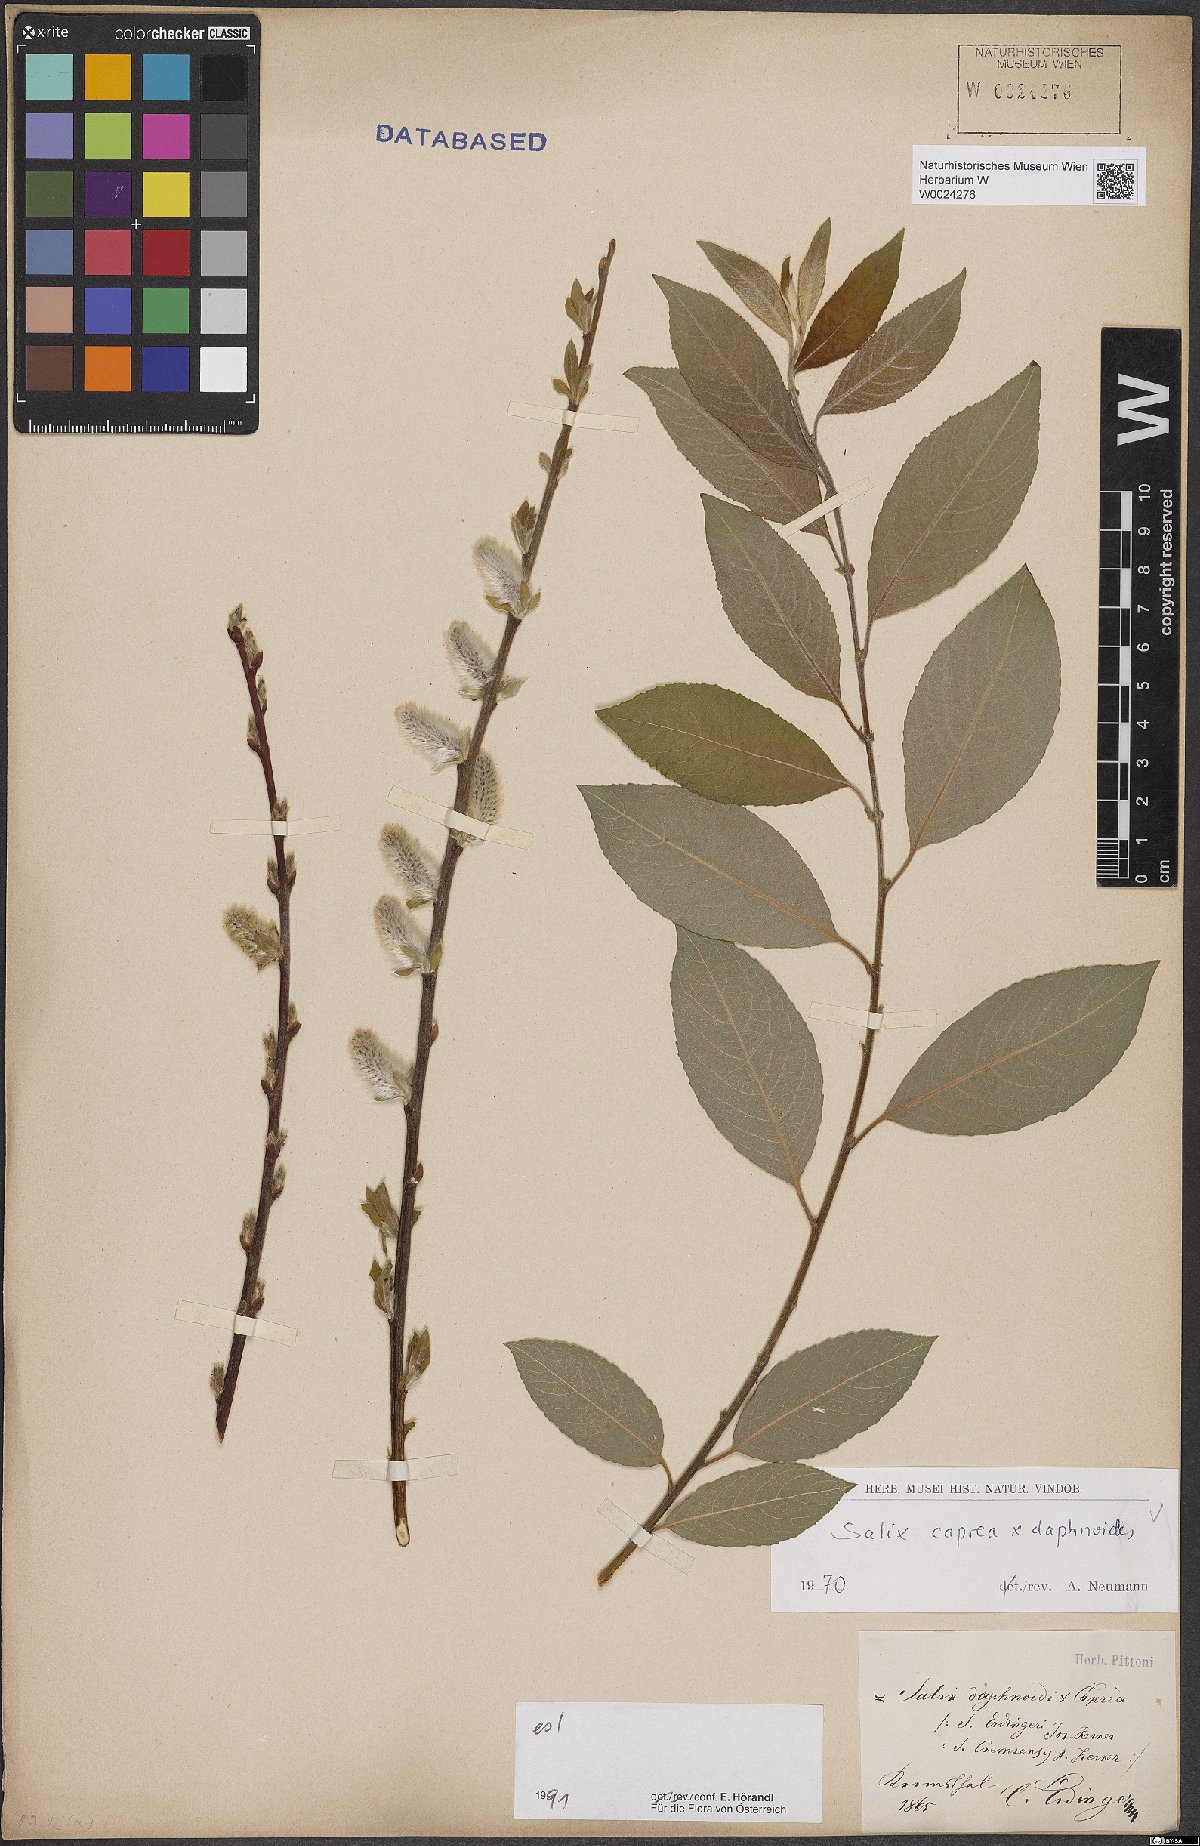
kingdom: Plantae
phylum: Tracheophyta
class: Magnoliopsida
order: Malpighiales
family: Salicaceae
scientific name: Salicaceae
